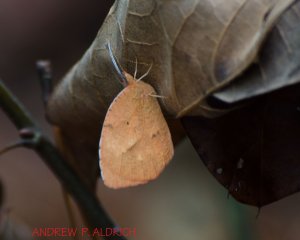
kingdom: Animalia
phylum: Arthropoda
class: Insecta
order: Lepidoptera
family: Pieridae
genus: Abaeis
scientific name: Abaeis nicippe
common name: Sleepy Orange
